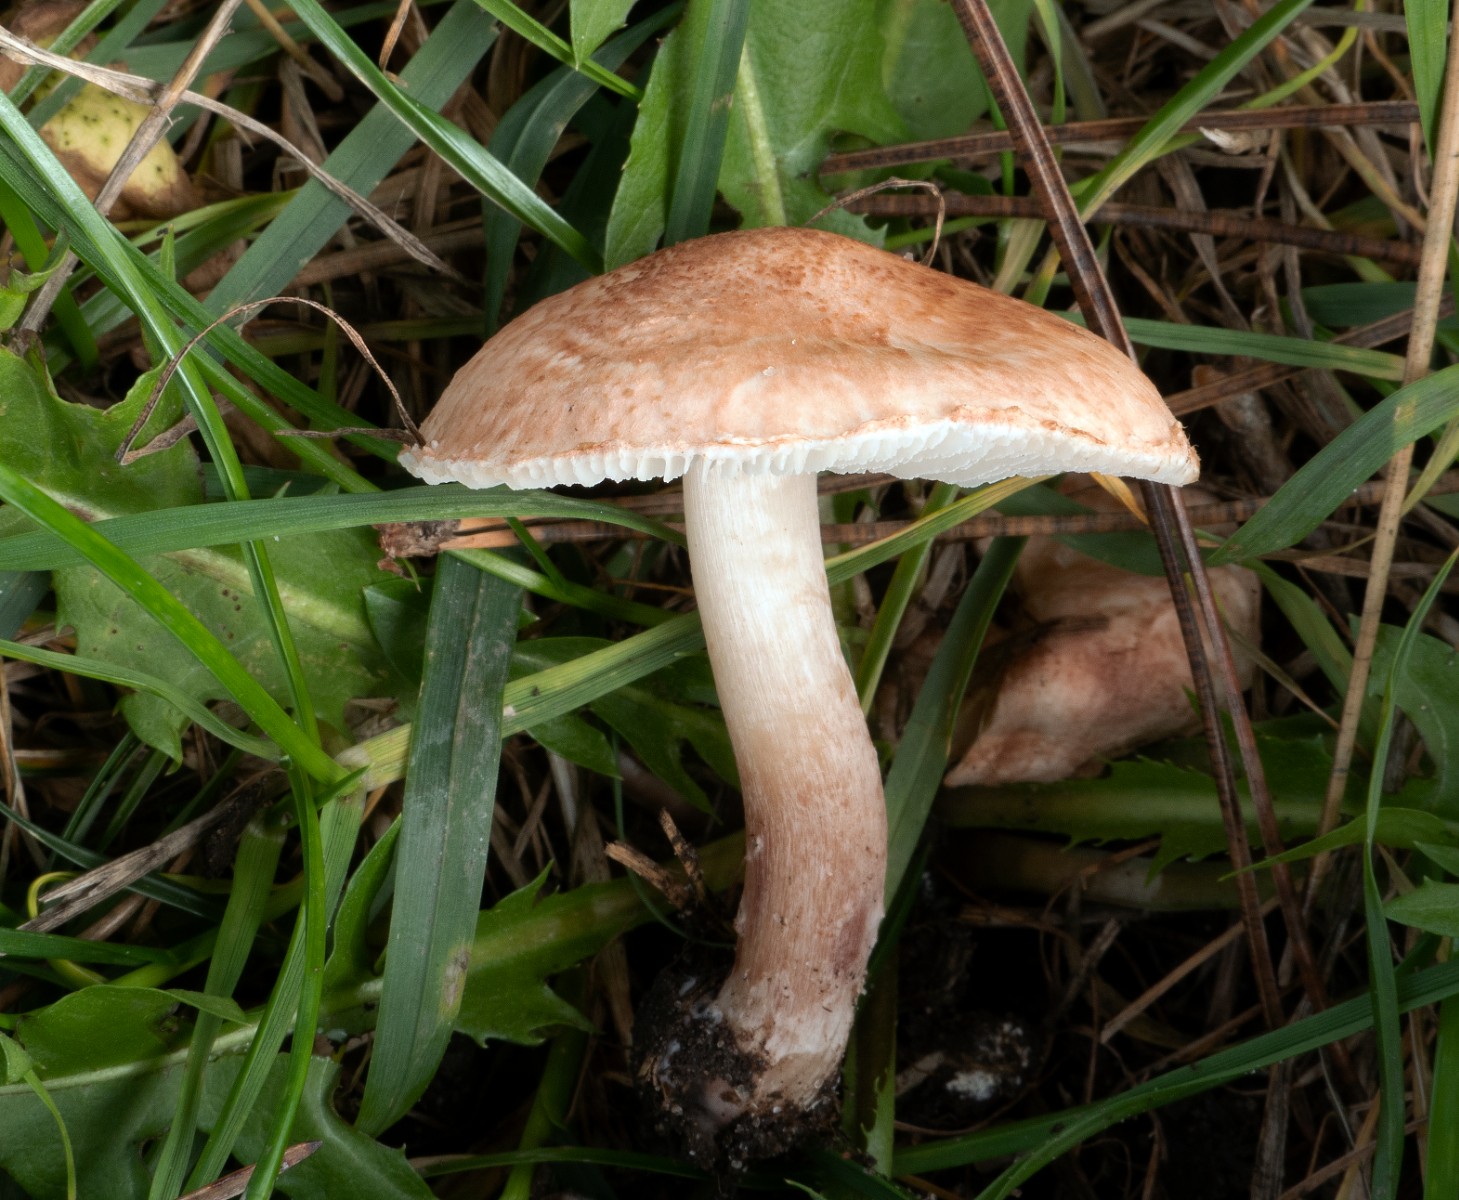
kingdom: Fungi
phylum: Basidiomycota
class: Agaricomycetes
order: Agaricales
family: Agaricaceae
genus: Lepiota
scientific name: Lepiota subincarnata
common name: kødfarvet parasolhat
